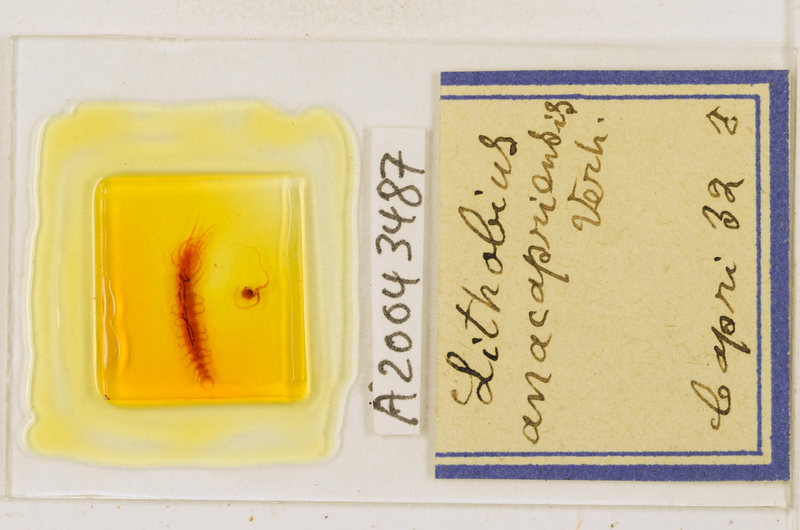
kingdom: Animalia
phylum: Arthropoda
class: Chilopoda
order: Lithobiomorpha
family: Lithobiidae
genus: Lithobius
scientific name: Lithobius erythrocephalus
